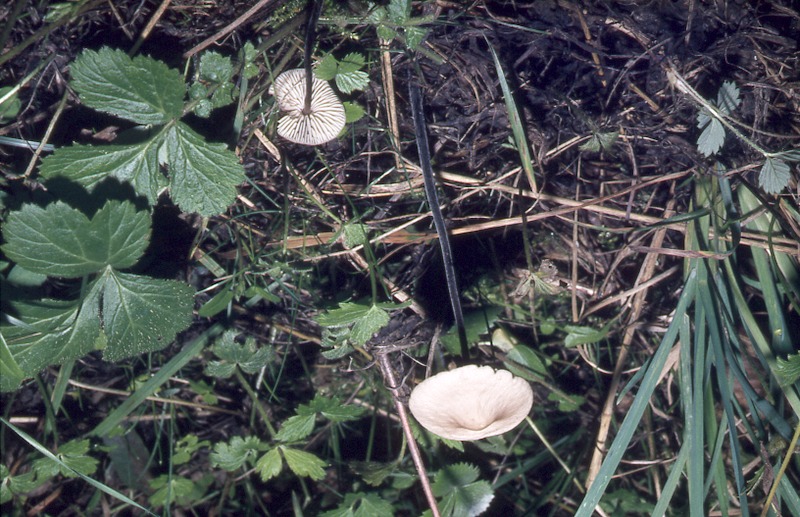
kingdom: Fungi
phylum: Basidiomycota
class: Agaricomycetes
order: Agaricales
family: Omphalotaceae
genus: Mycetinis
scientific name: Mycetinis alliaceus
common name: Garlic parachute
